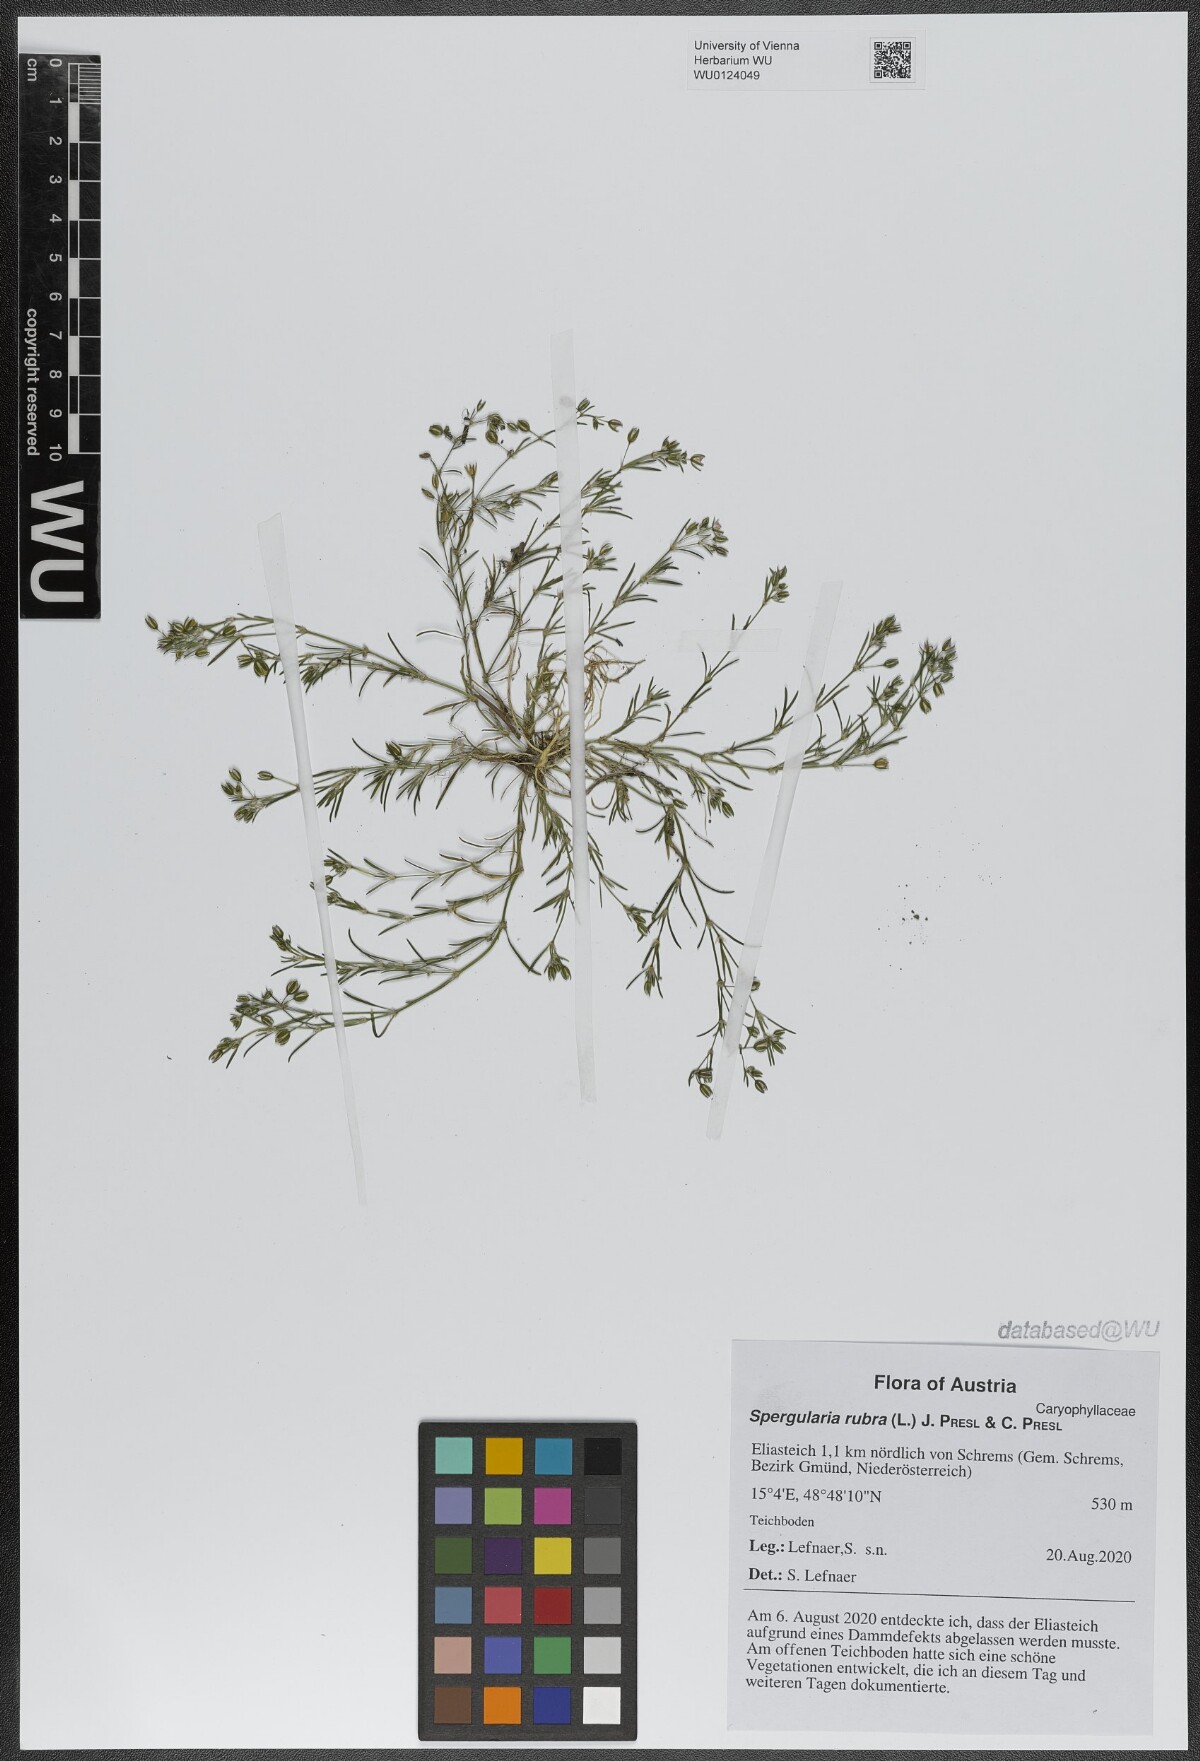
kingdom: Plantae
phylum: Tracheophyta
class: Magnoliopsida
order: Caryophyllales
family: Caryophyllaceae
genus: Spergularia
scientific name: Spergularia rubra
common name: Red sand-spurrey
